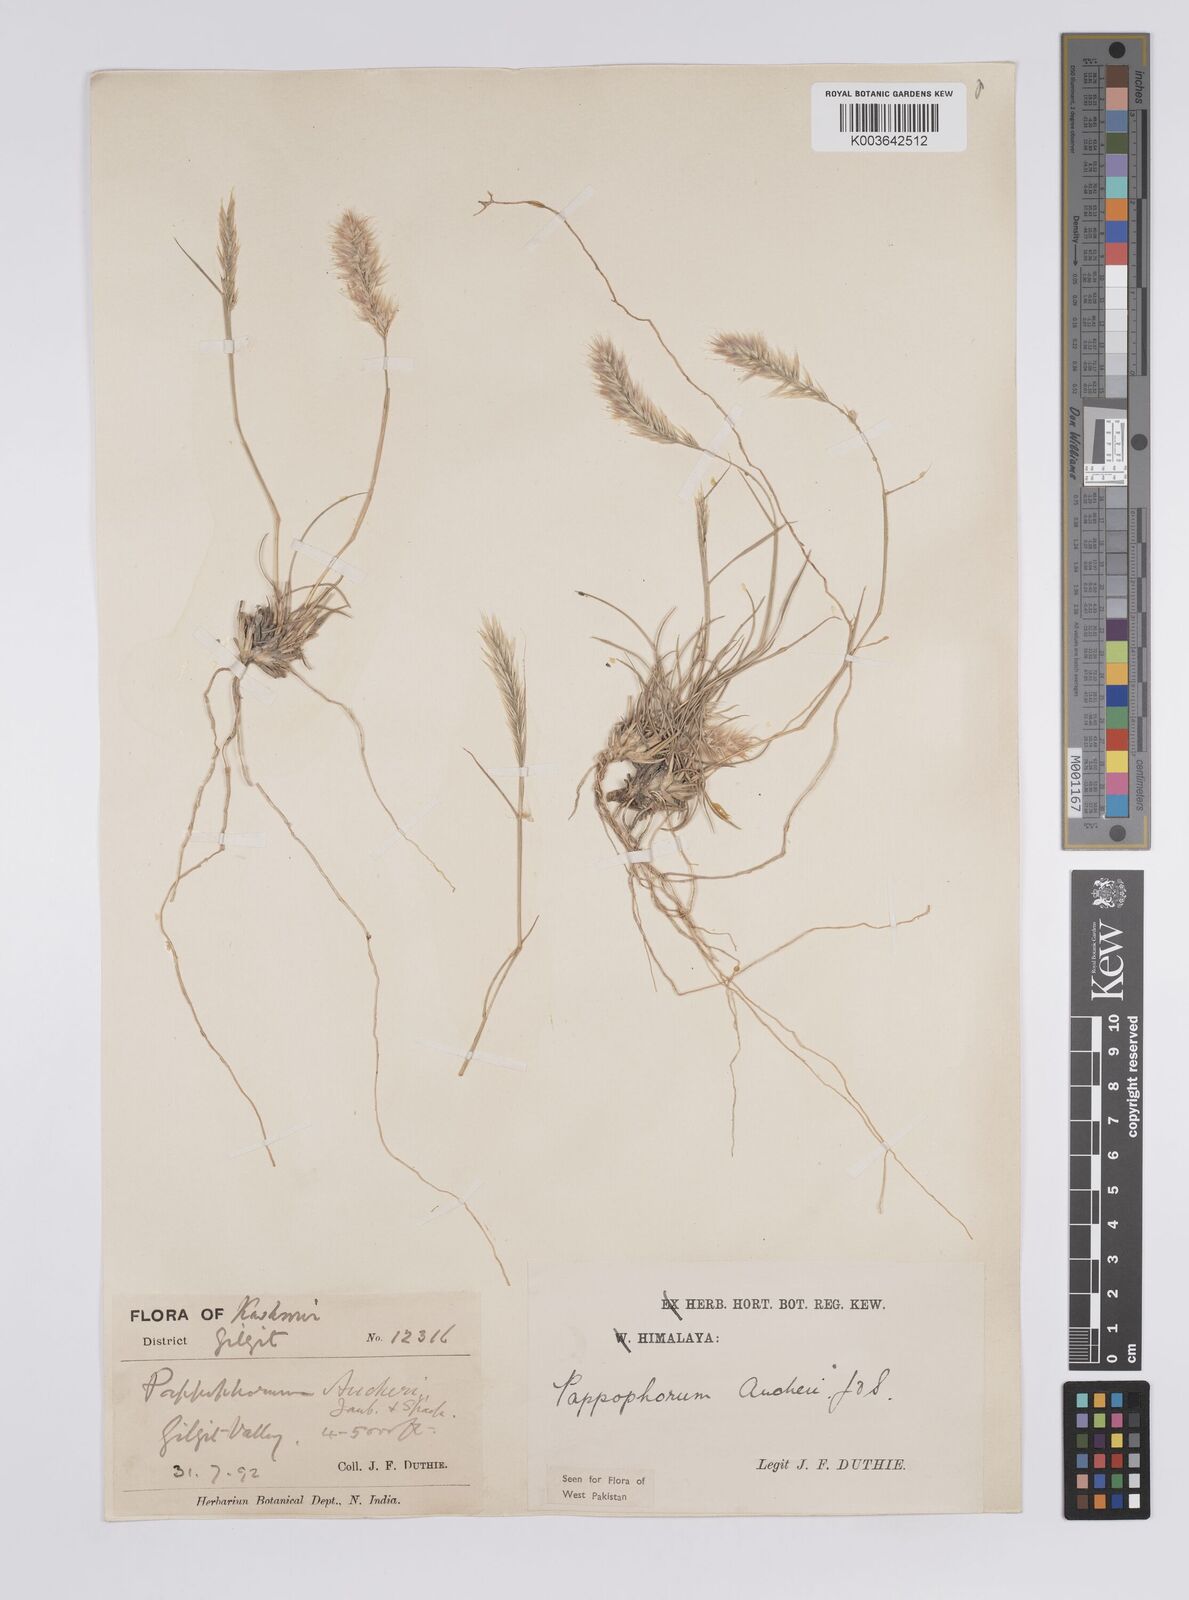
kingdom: Plantae
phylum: Tracheophyta
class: Liliopsida
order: Poales
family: Poaceae
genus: Enneapogon
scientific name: Enneapogon persicus
